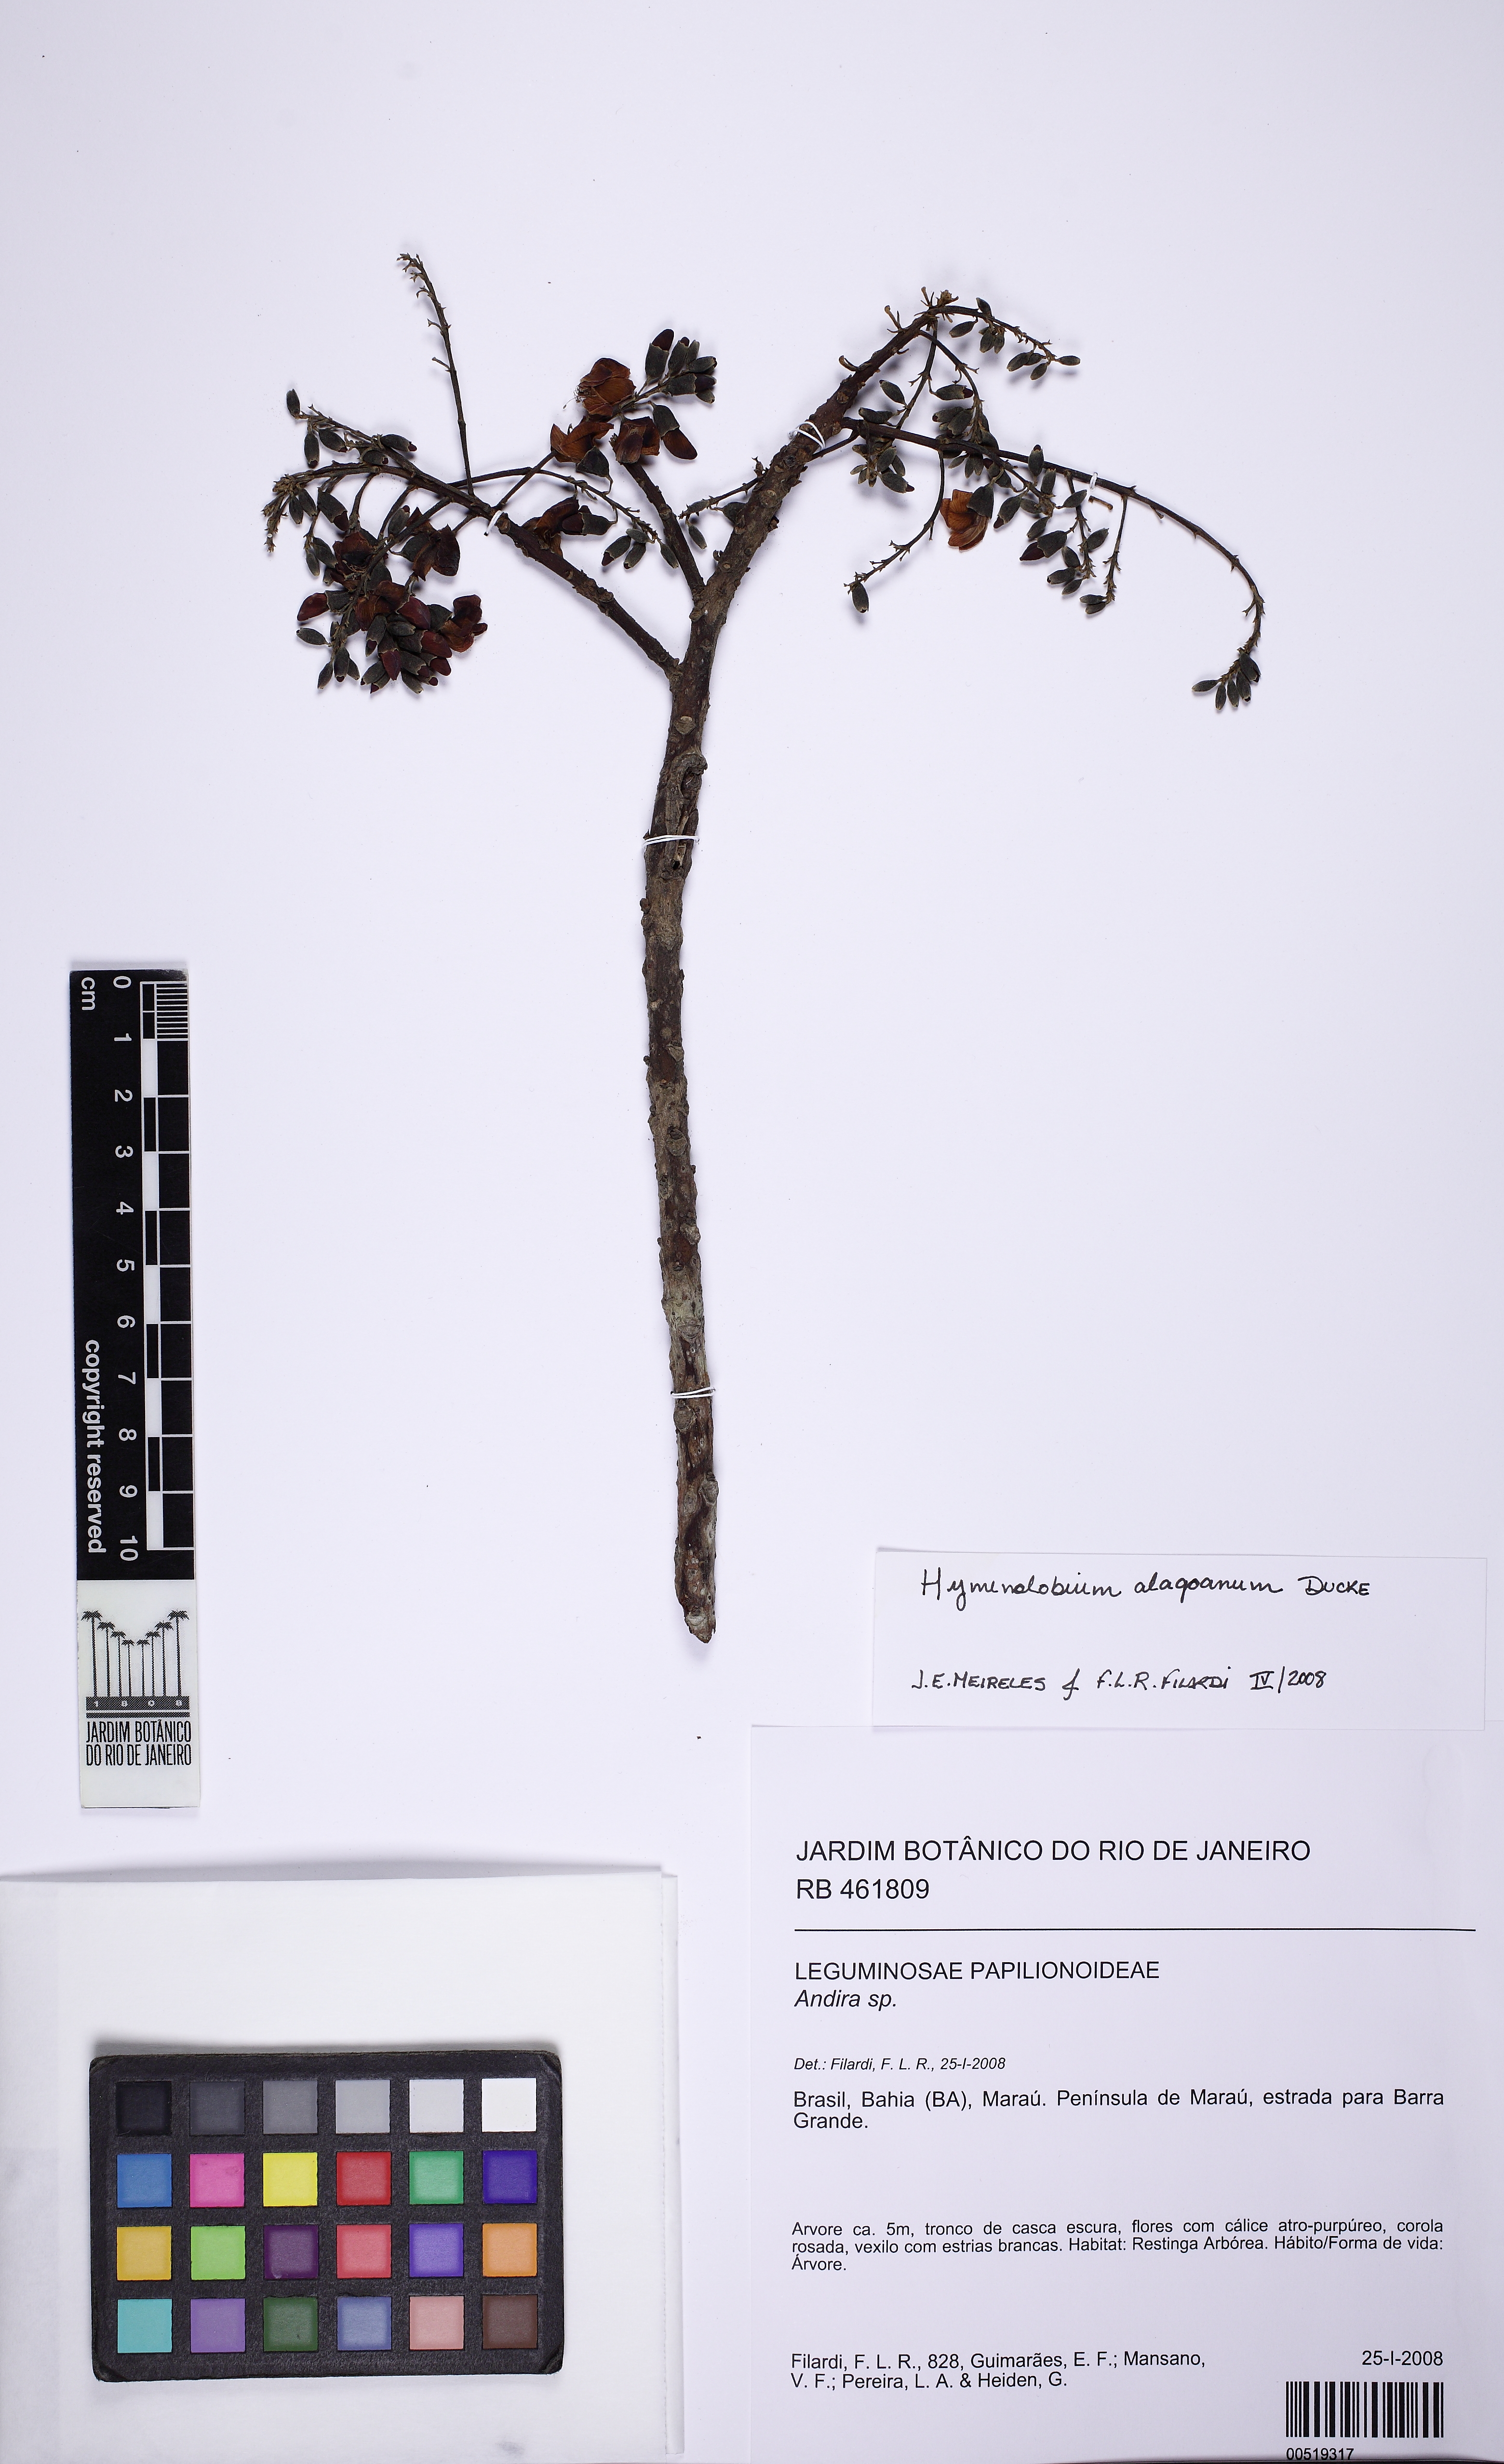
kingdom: Plantae
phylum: Tracheophyta
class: Magnoliopsida
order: Fabales
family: Fabaceae
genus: Andira
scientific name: Andira
